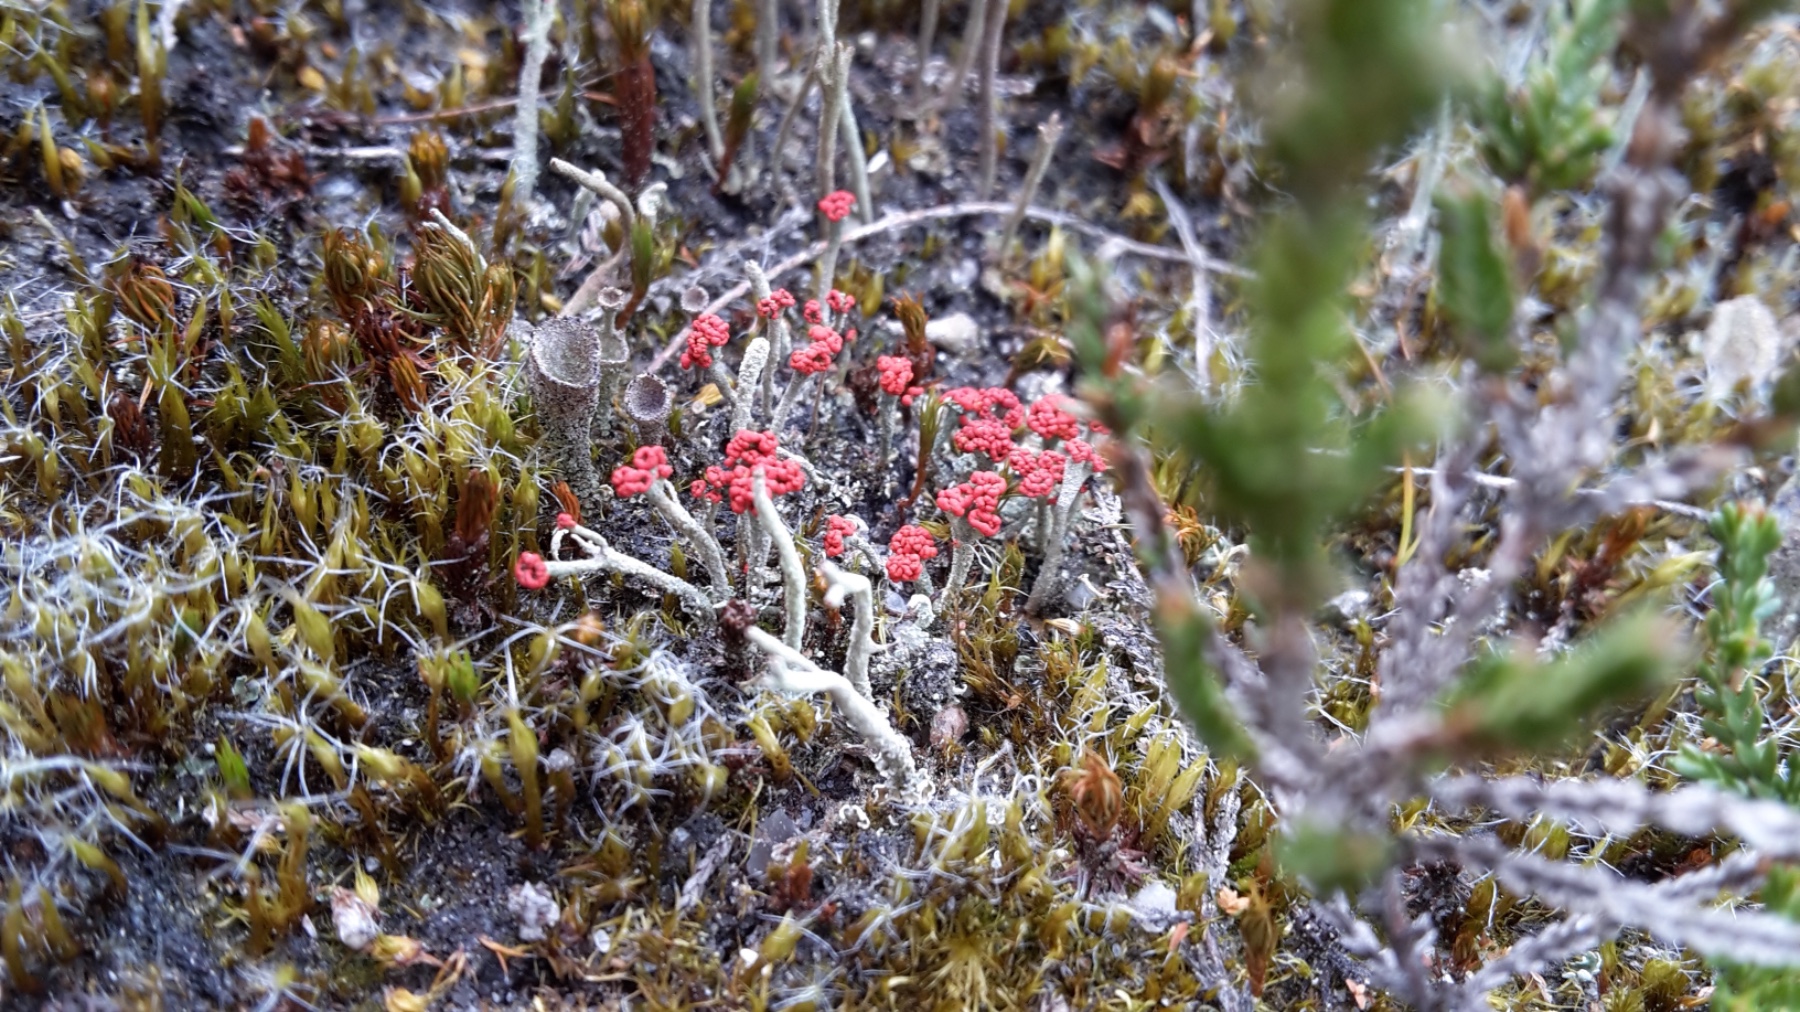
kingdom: Fungi
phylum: Ascomycota
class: Lecanoromycetes
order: Lecanorales
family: Cladoniaceae
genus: Cladonia
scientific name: Cladonia floerkeana
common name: lakrød bægerlav
